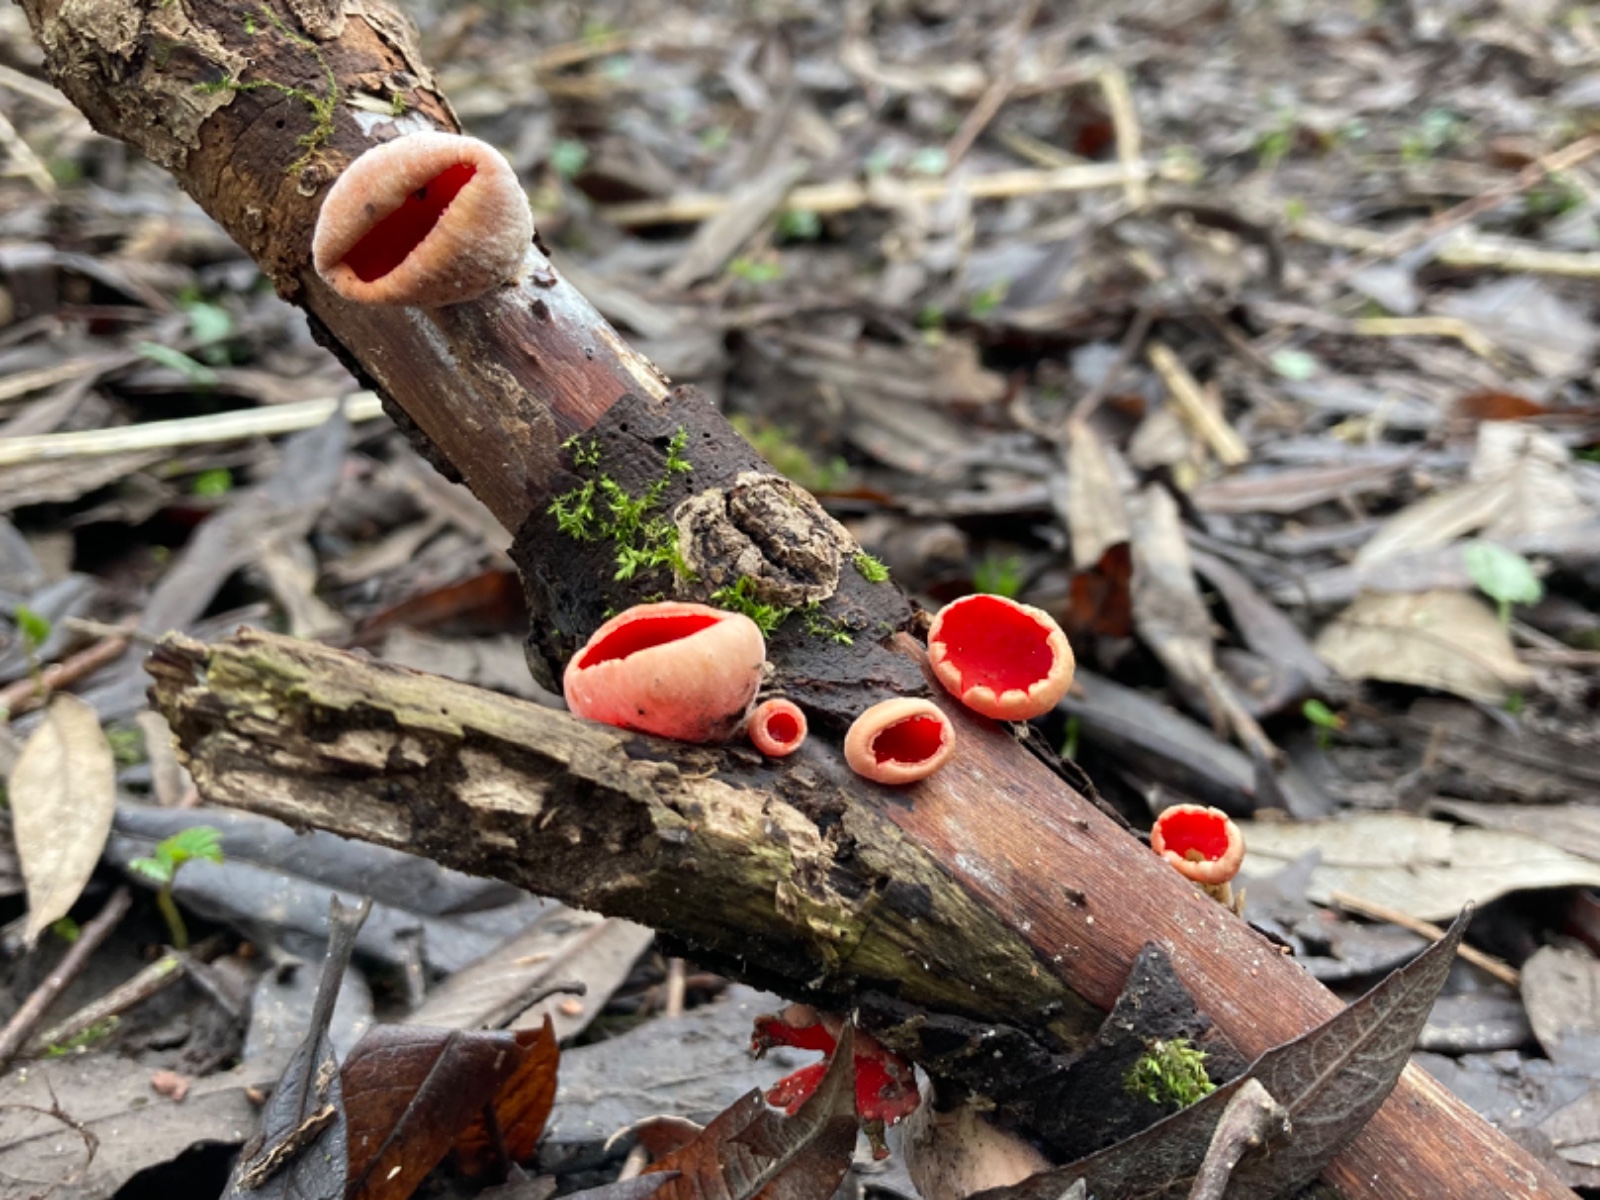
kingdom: Fungi
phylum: Ascomycota
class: Pezizomycetes
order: Pezizales
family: Sarcoscyphaceae
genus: Sarcoscypha
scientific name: Sarcoscypha austriaca
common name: krølhåret pragtbæger
